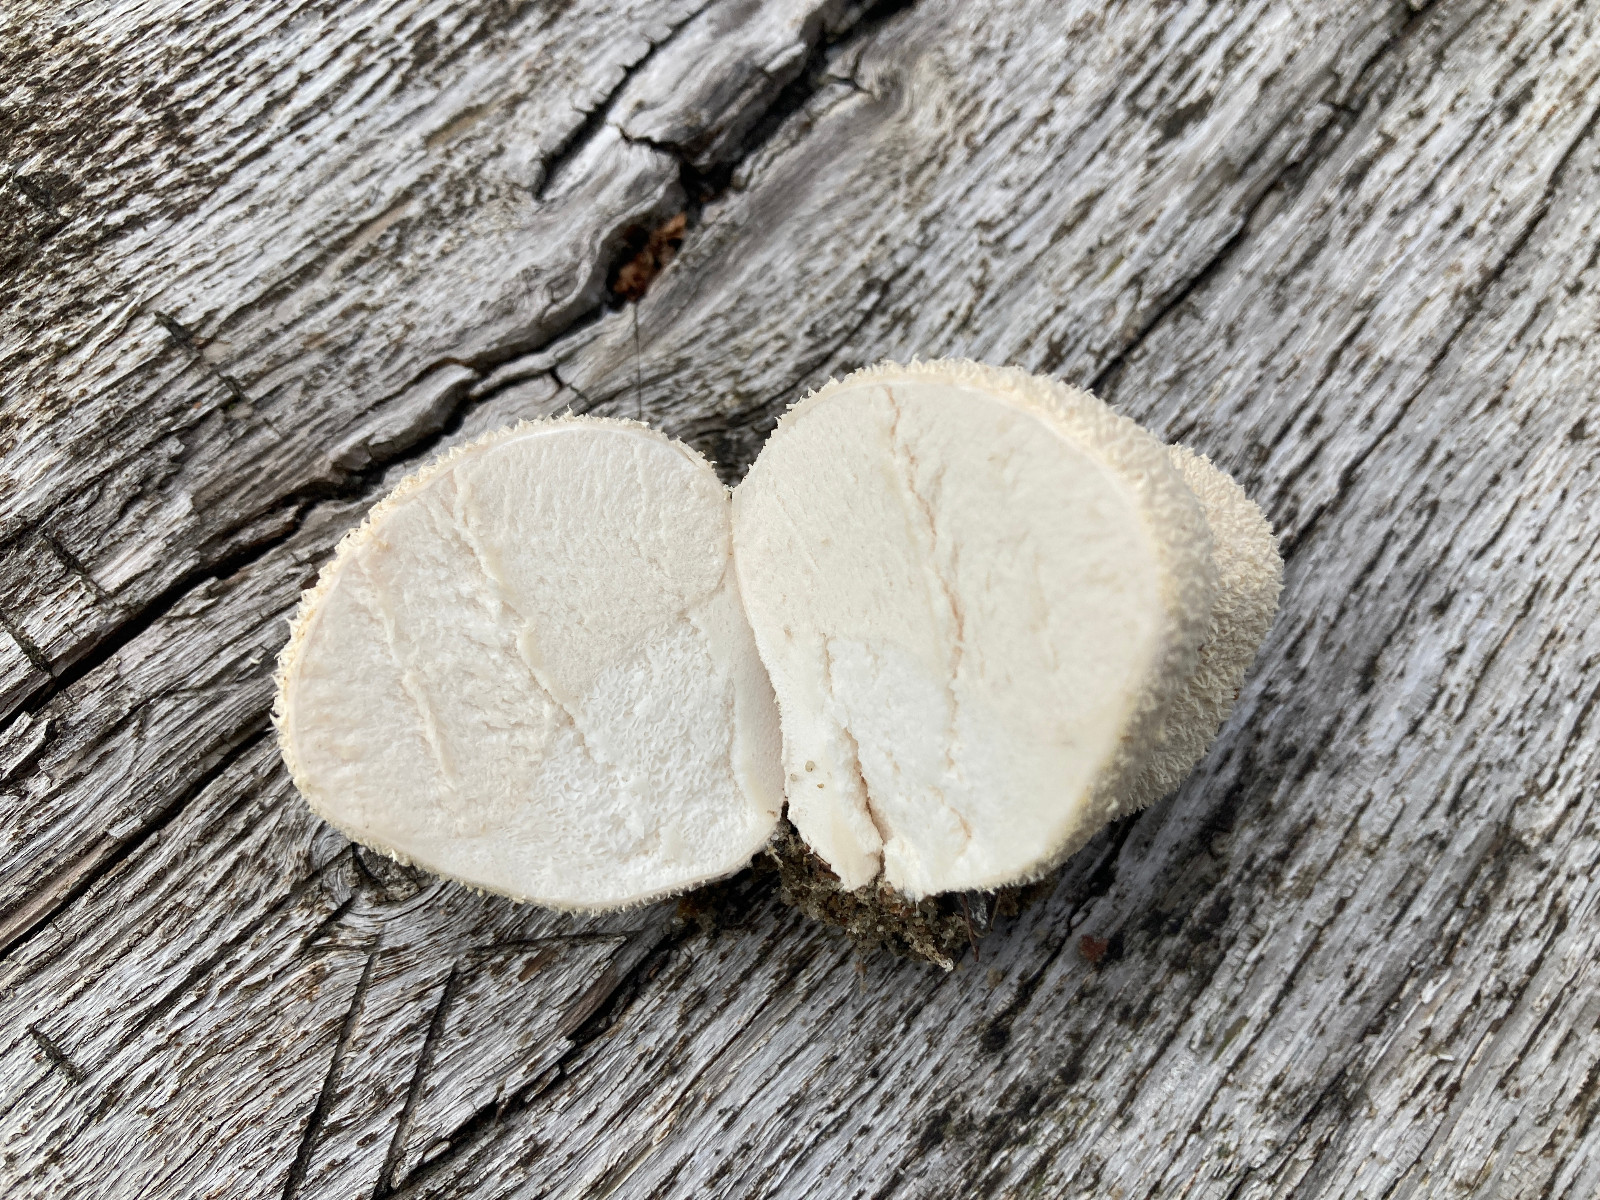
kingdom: Fungi
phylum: Basidiomycota
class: Agaricomycetes
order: Agaricales
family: Lycoperdaceae
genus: Lycoperdon
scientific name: Lycoperdon pratense
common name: flad støvbold
